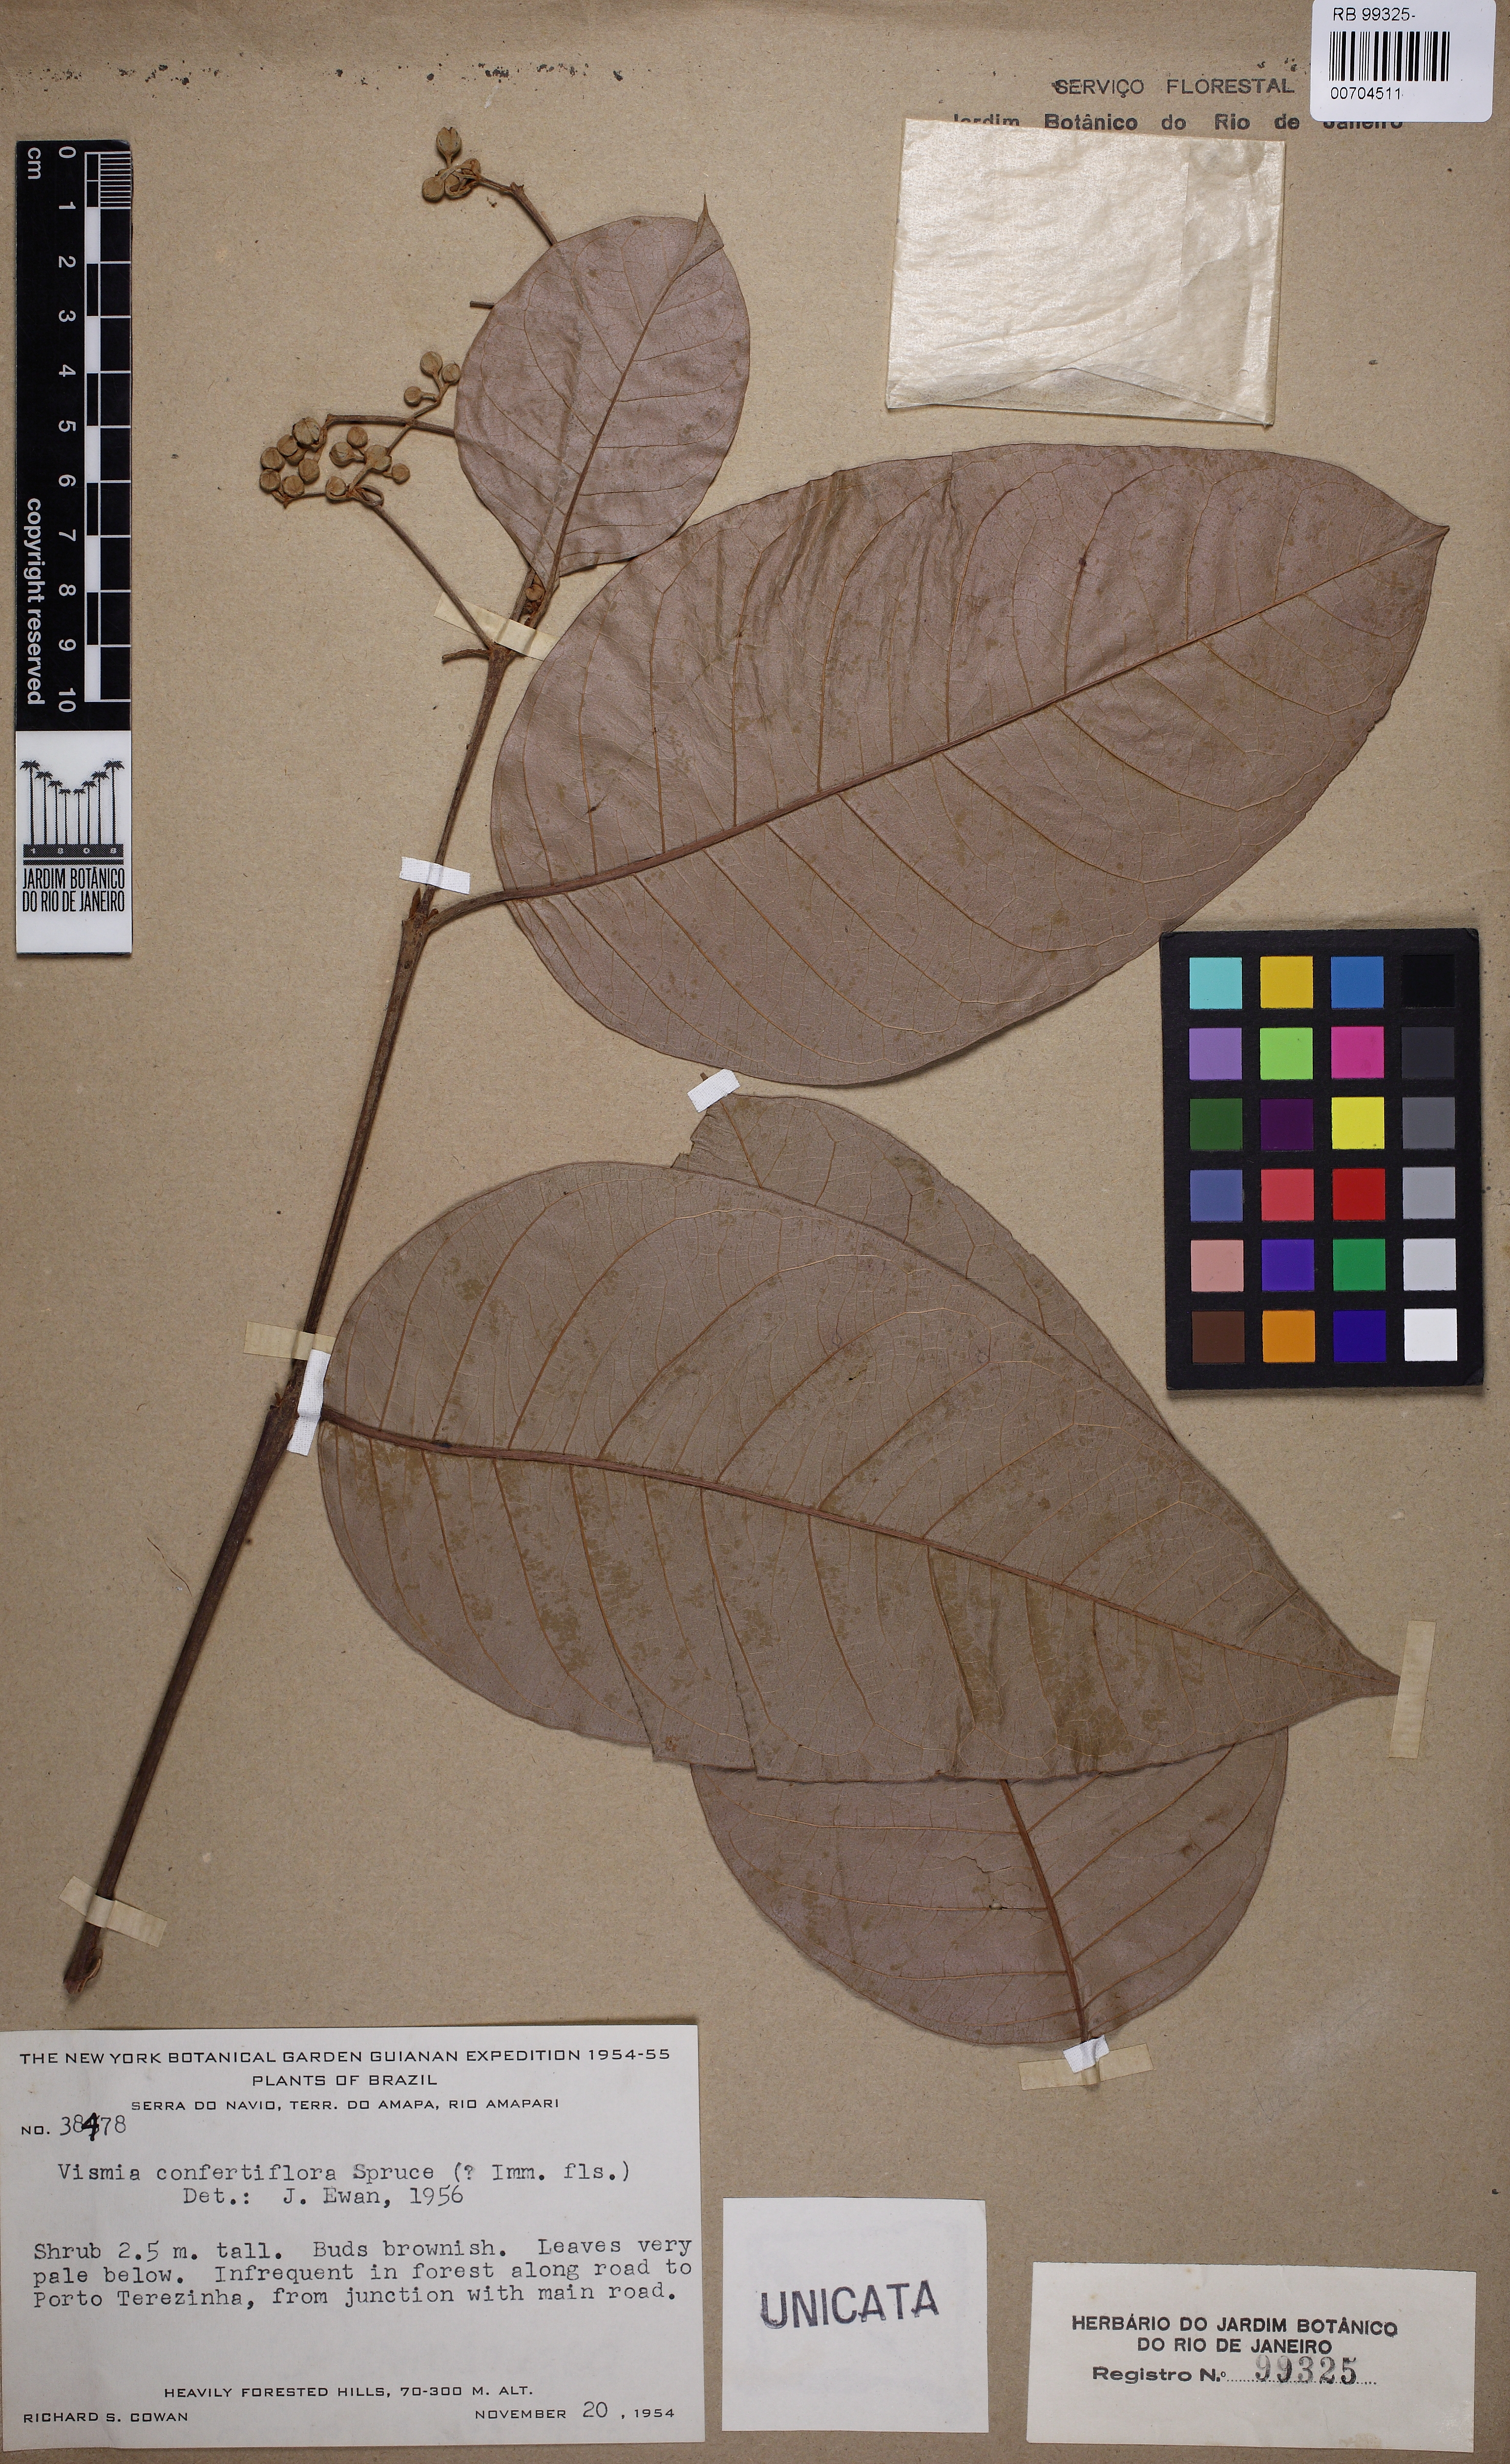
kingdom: Plantae
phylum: Tracheophyta
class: Magnoliopsida
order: Malpighiales
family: Hypericaceae
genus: Vismia
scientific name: Vismia baccifera
